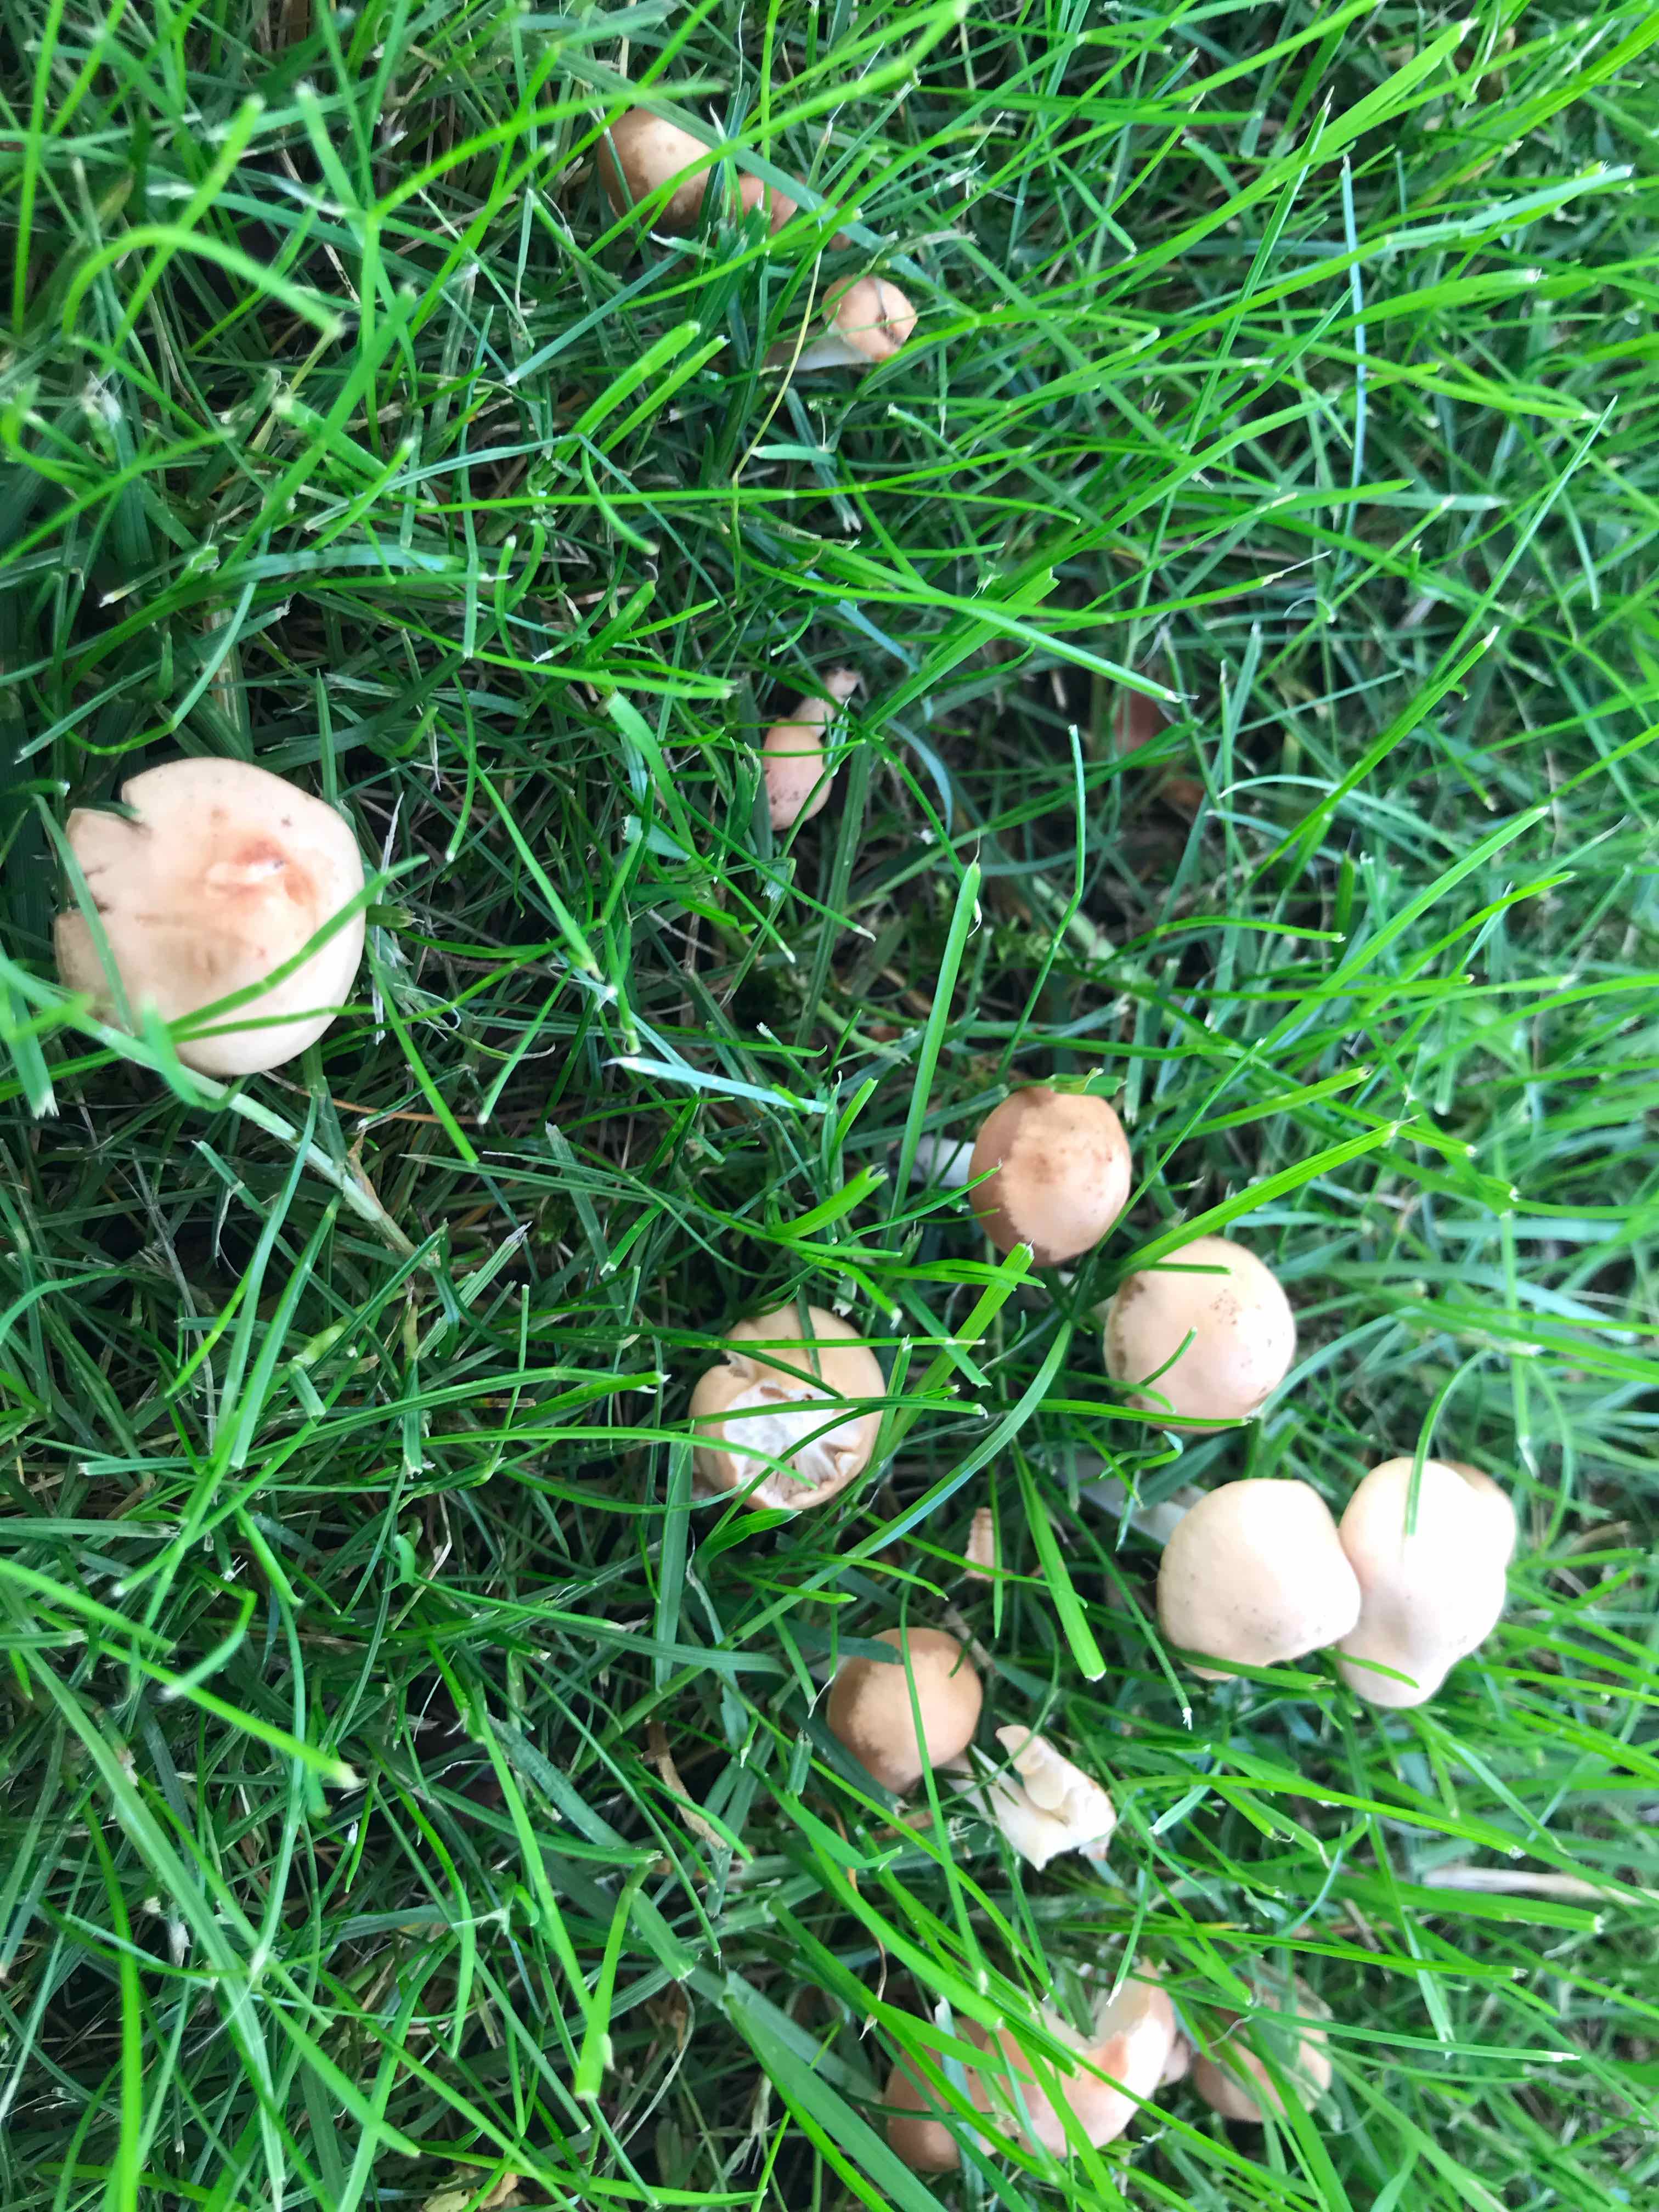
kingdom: Fungi
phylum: Basidiomycota
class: Agaricomycetes
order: Agaricales
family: Marasmiaceae
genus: Marasmius
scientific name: Marasmius oreades
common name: elledans-bruskhat
